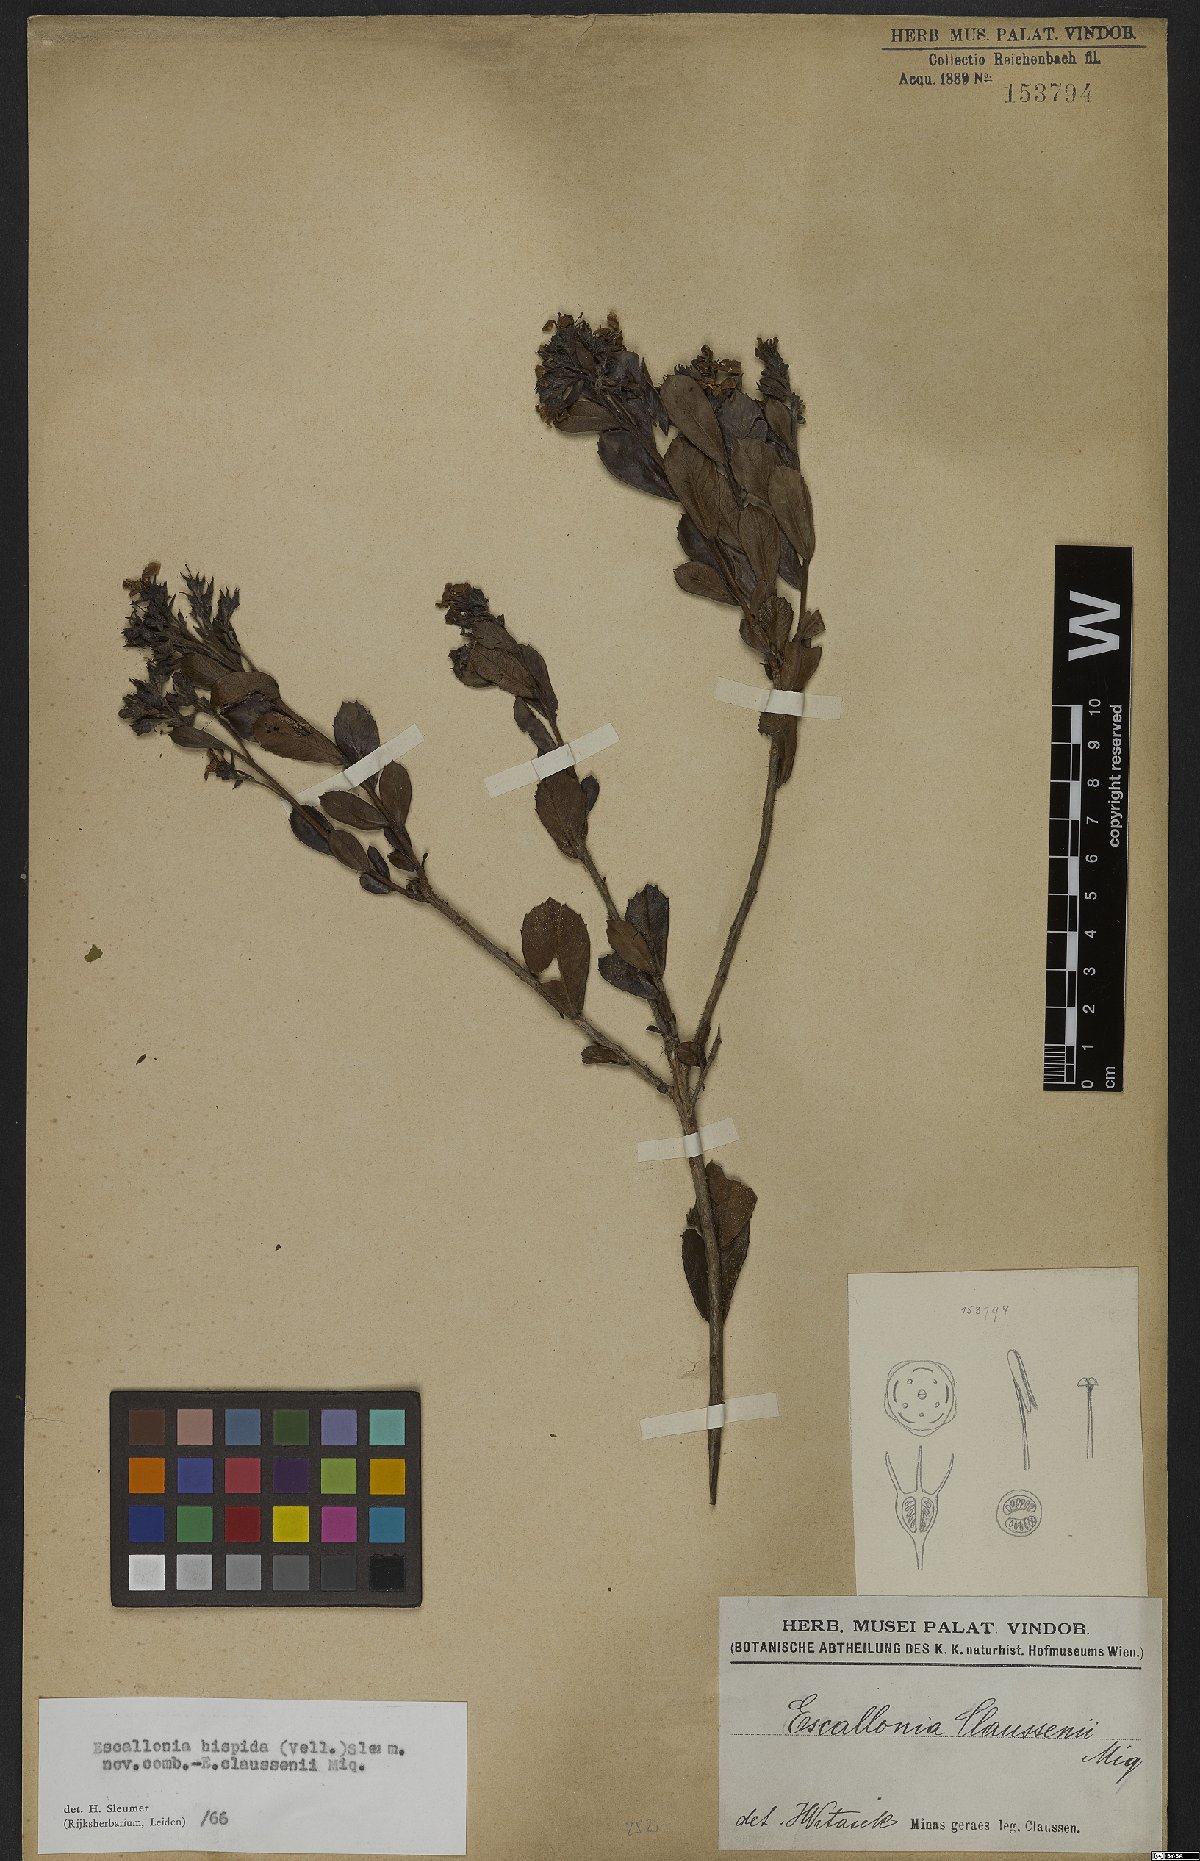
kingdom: Plantae
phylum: Tracheophyta
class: Magnoliopsida
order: Escalloniales
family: Escalloniaceae
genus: Escallonia
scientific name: Escallonia hispida
